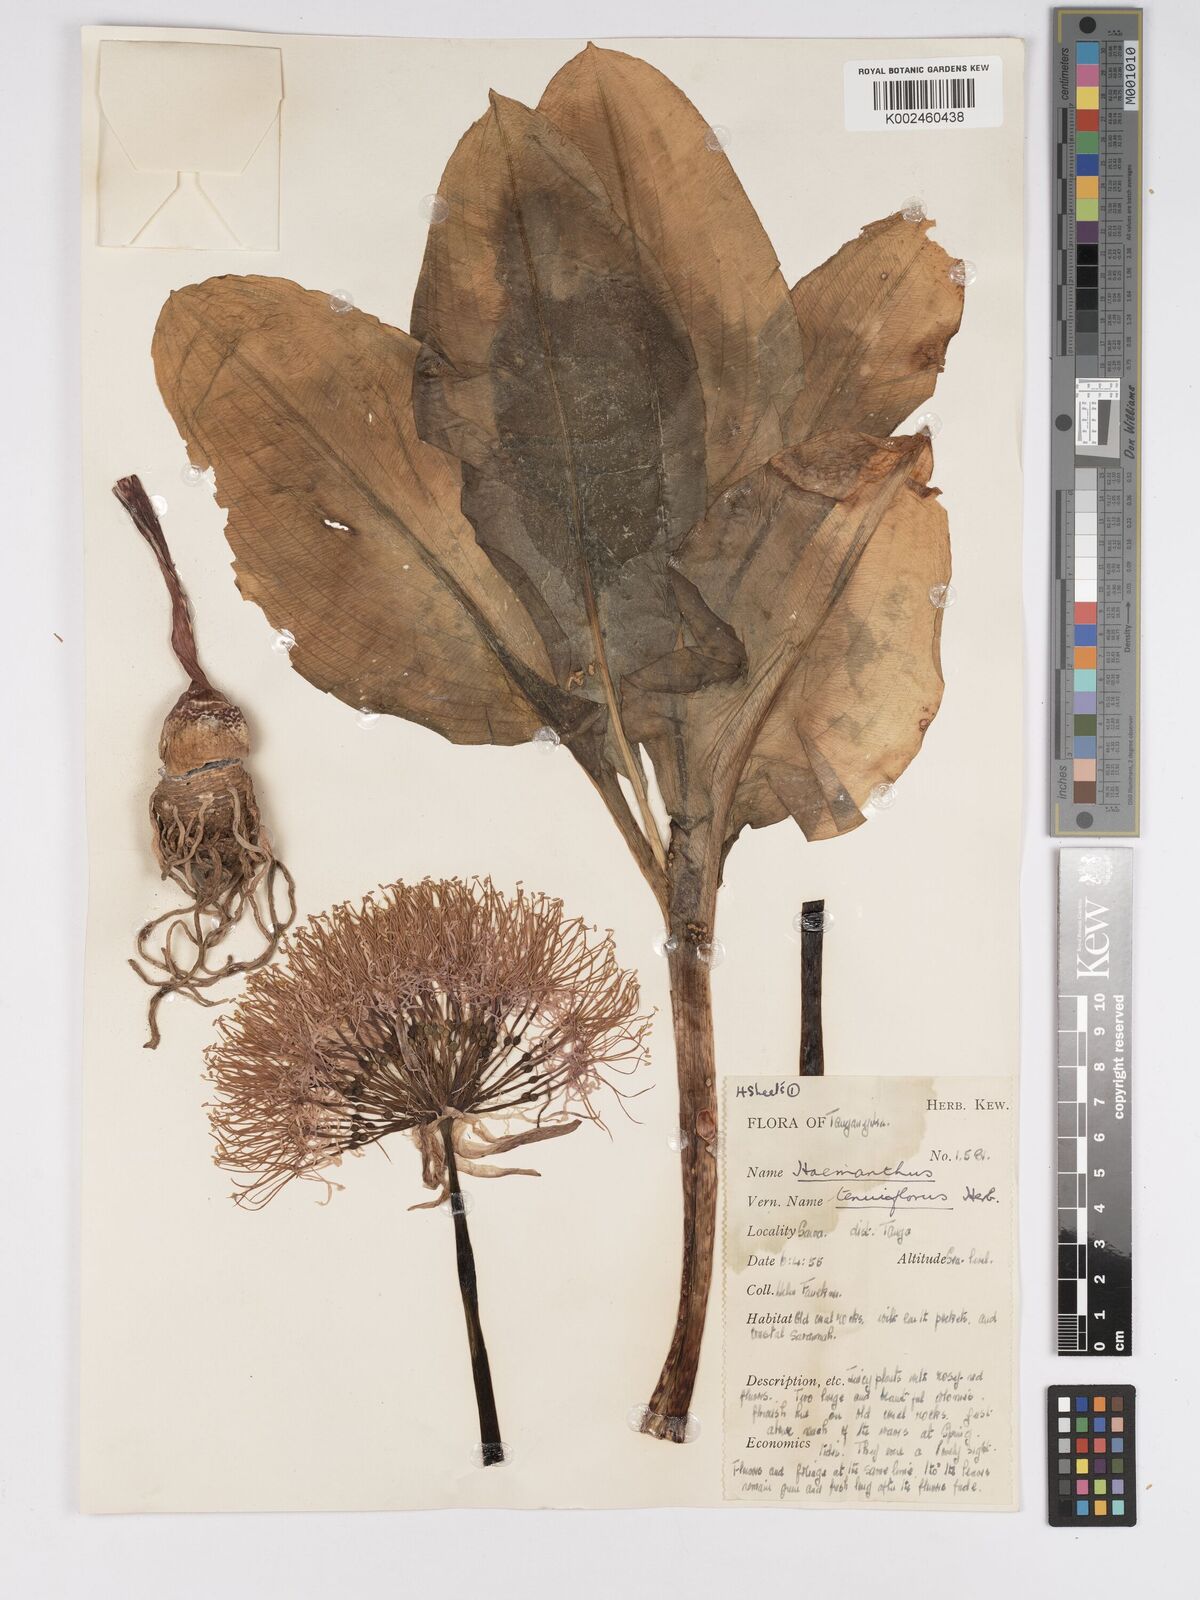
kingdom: Plantae
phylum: Tracheophyta
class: Liliopsida
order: Asparagales
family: Amaryllidaceae
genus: Scadoxus
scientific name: Scadoxus multiflorus
